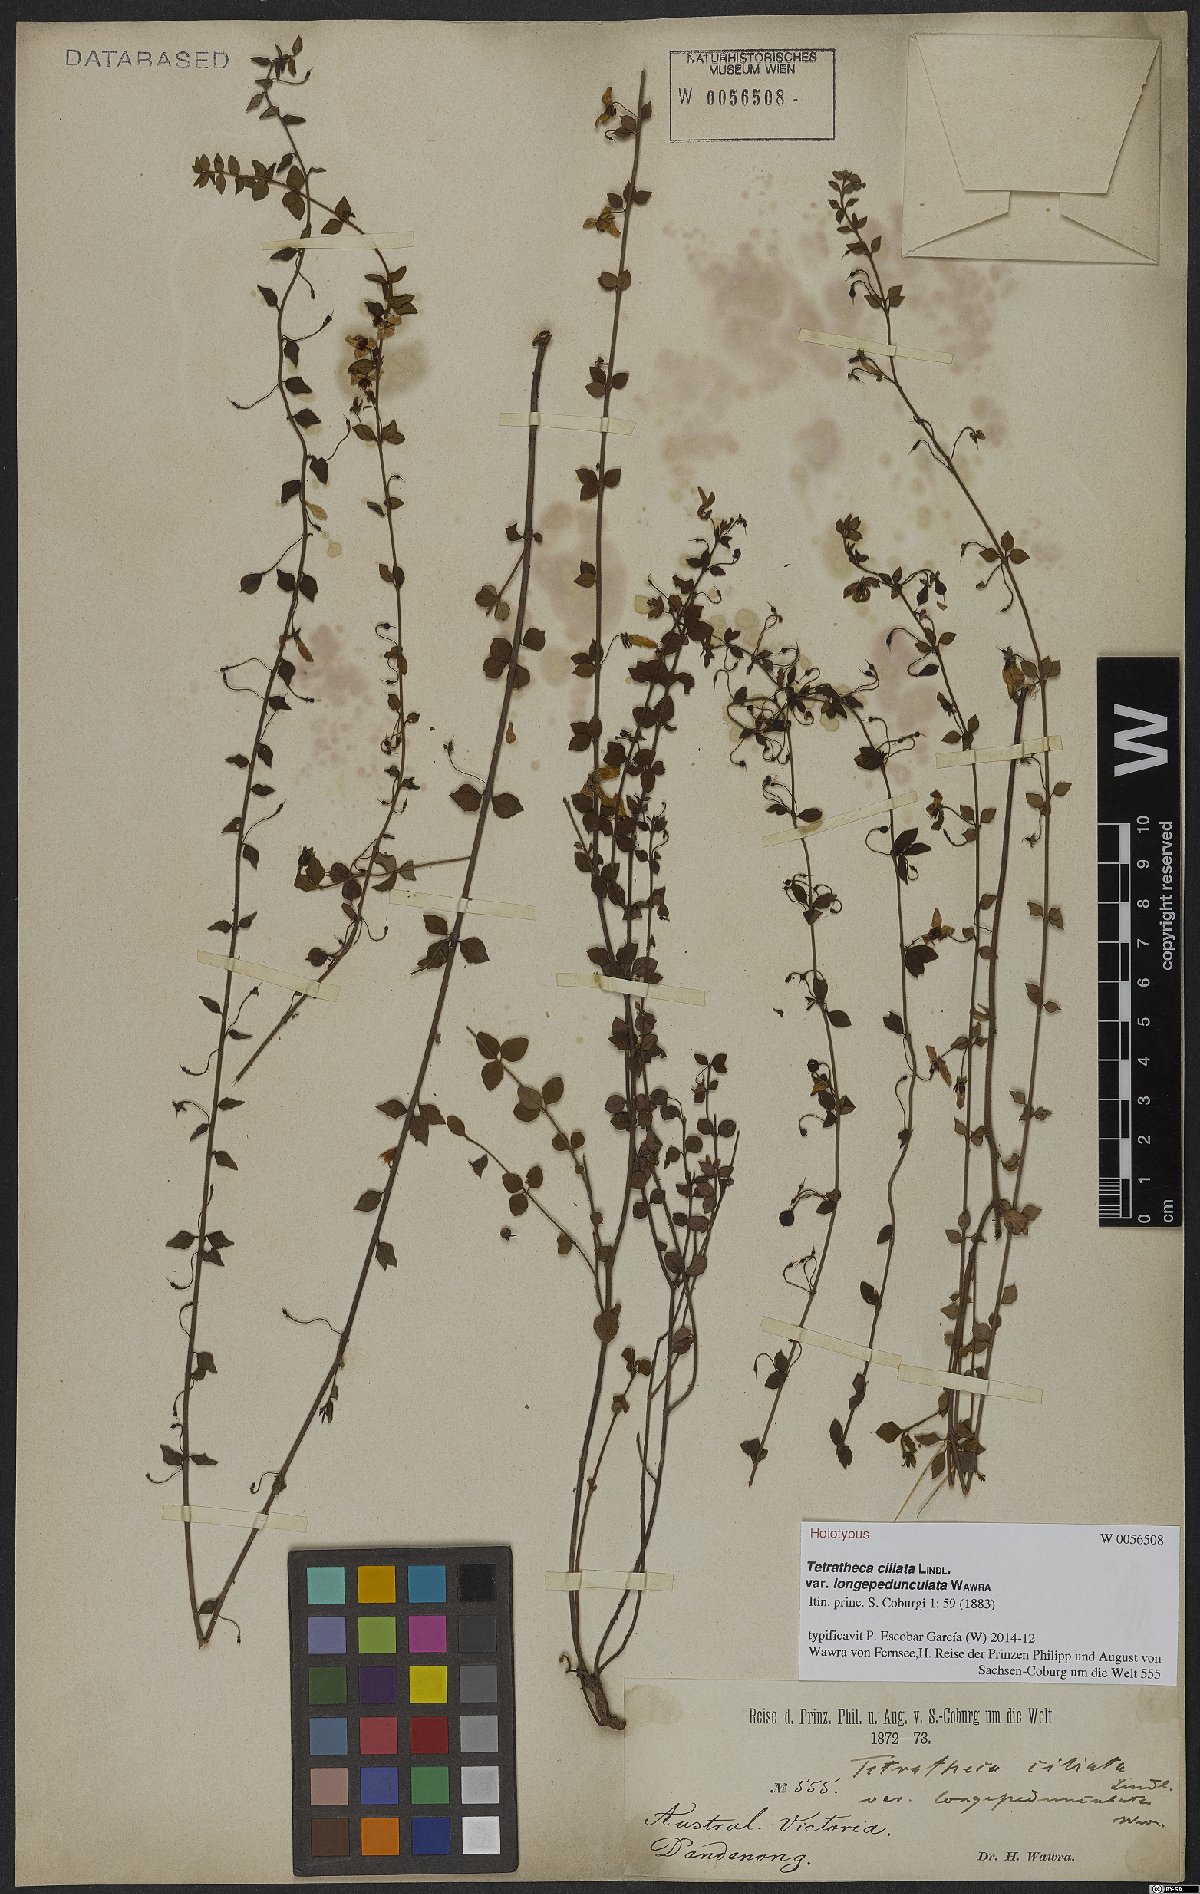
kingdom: Plantae
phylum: Tracheophyta
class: Magnoliopsida
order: Oxalidales
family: Elaeocarpaceae
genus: Tetratheca
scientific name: Tetratheca ciliata
